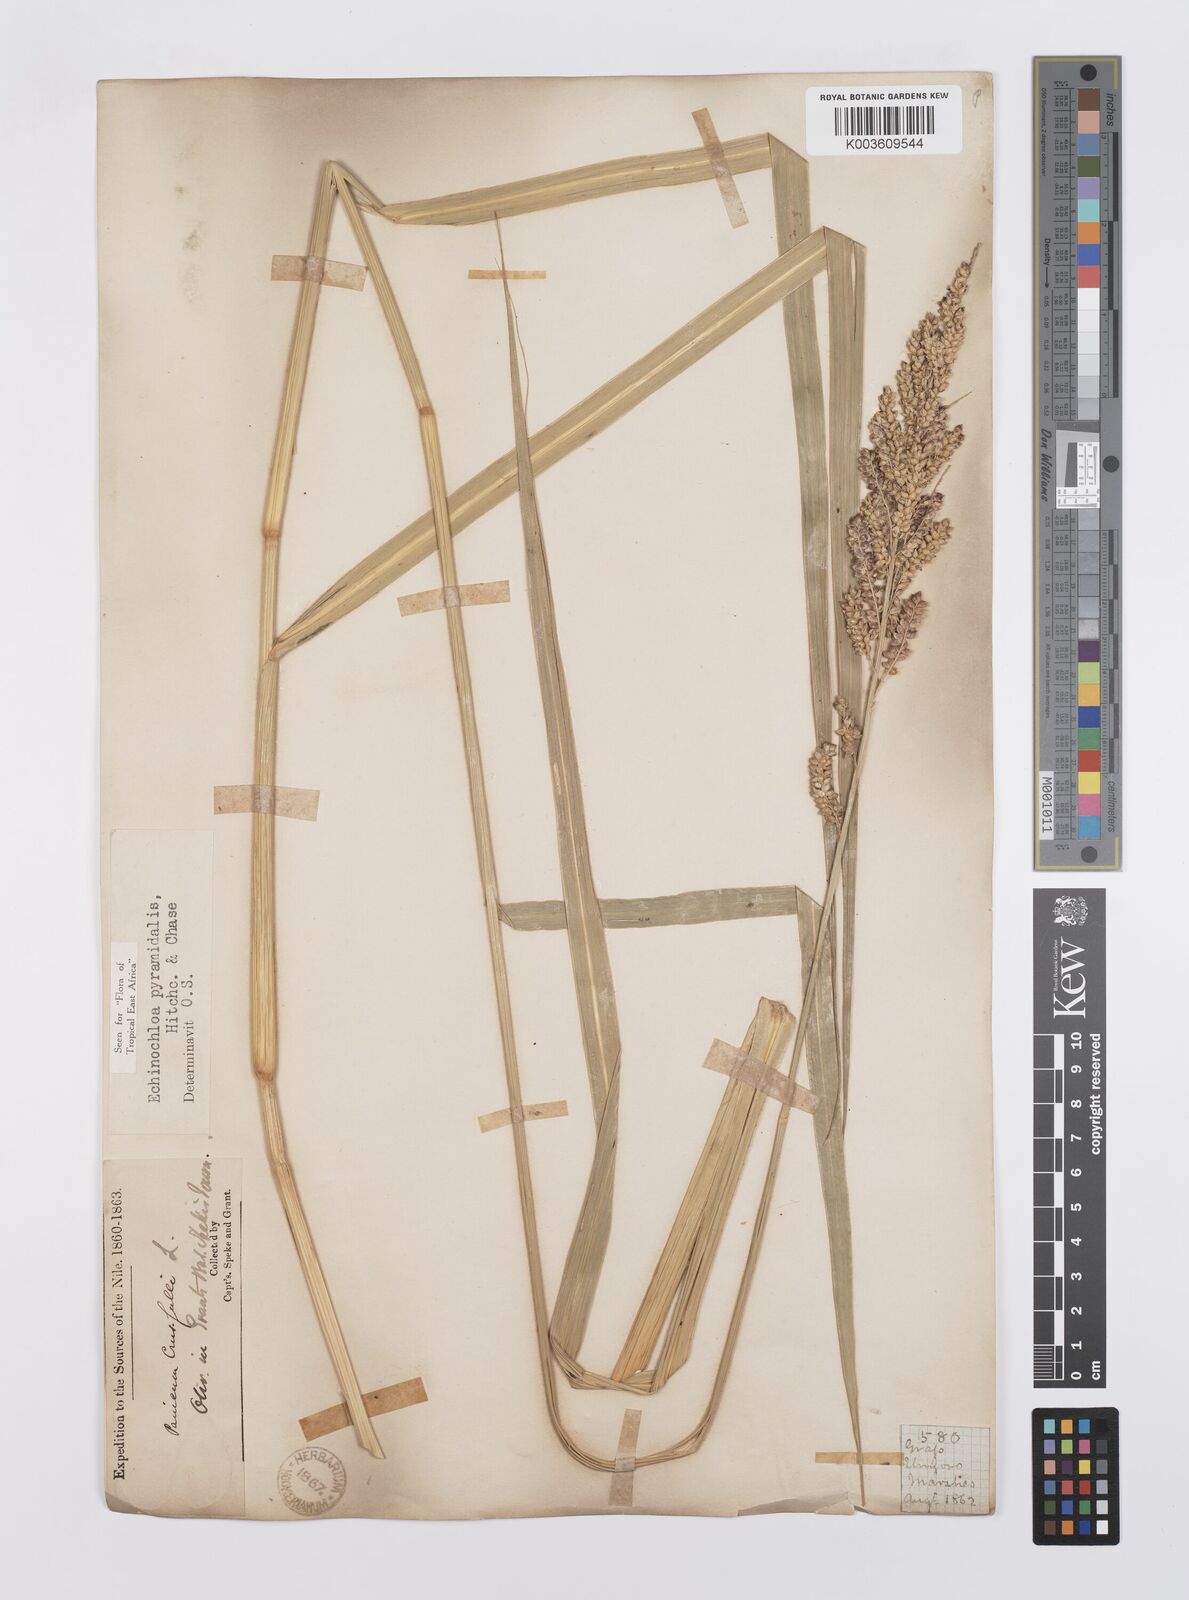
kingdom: Plantae
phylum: Tracheophyta
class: Liliopsida
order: Poales
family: Poaceae
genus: Echinochloa
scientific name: Echinochloa pyramidalis
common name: Antelope grass
